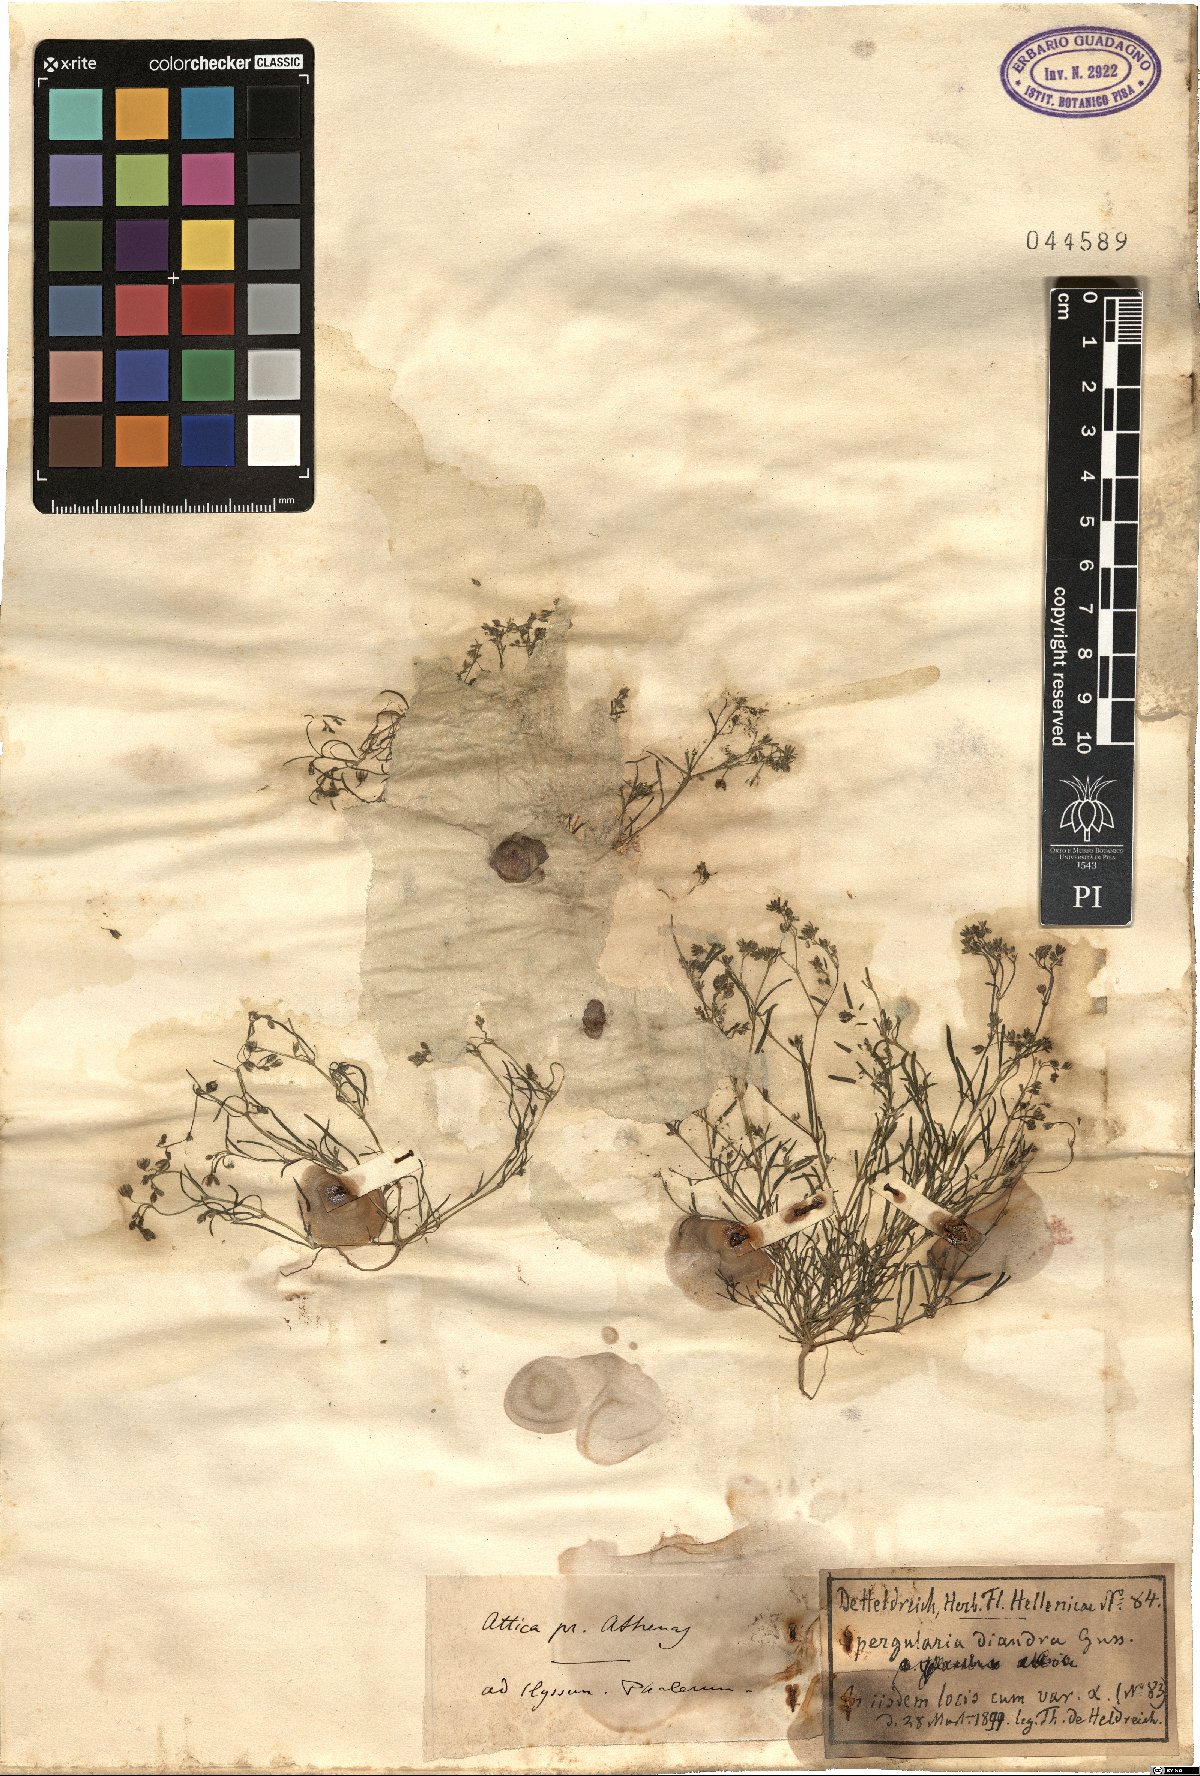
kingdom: Plantae
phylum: Tracheophyta
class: Magnoliopsida
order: Caryophyllales
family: Caryophyllaceae
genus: Spergularia
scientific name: Spergularia diandra
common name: Alkali sand-spurrey
